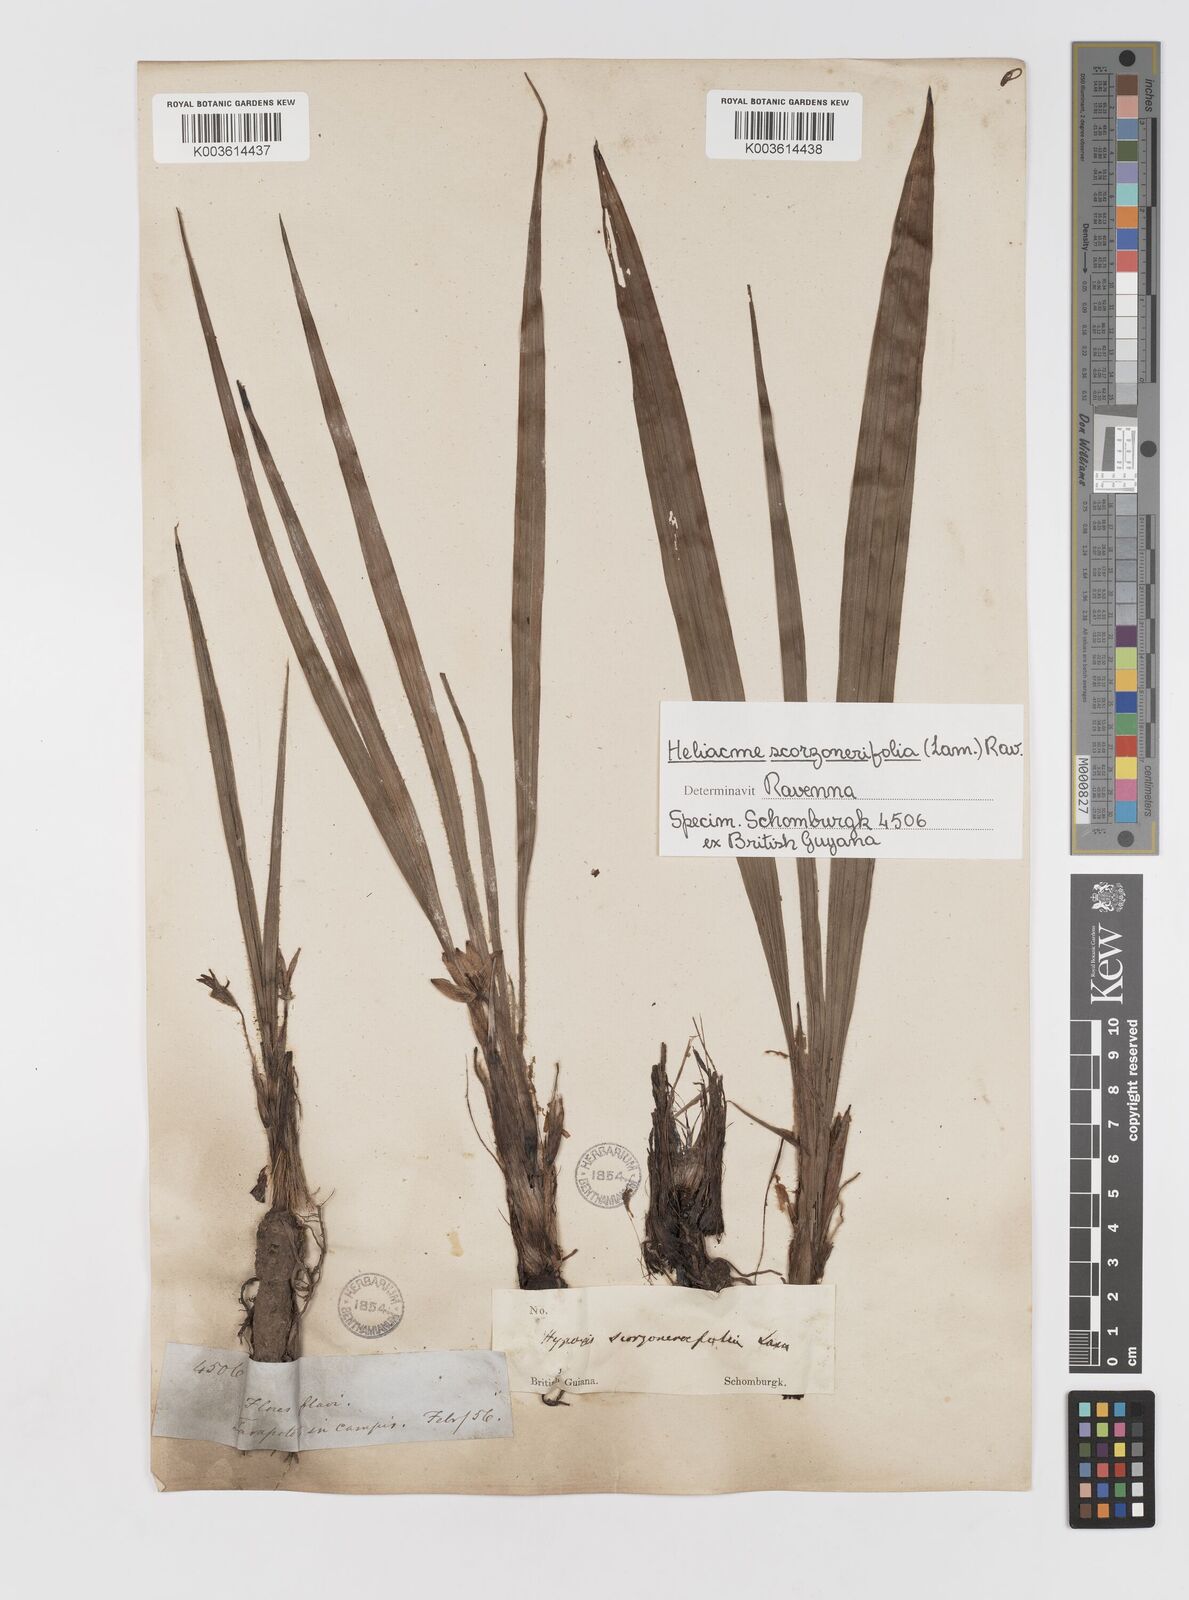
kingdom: Plantae
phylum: Tracheophyta
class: Liliopsida
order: Asparagales
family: Hypoxidaceae
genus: Curculigo
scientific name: Curculigo scorzonerifolia
